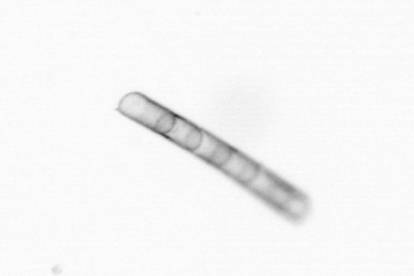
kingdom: Chromista
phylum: Ochrophyta
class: Bacillariophyceae
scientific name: Bacillariophyceae
